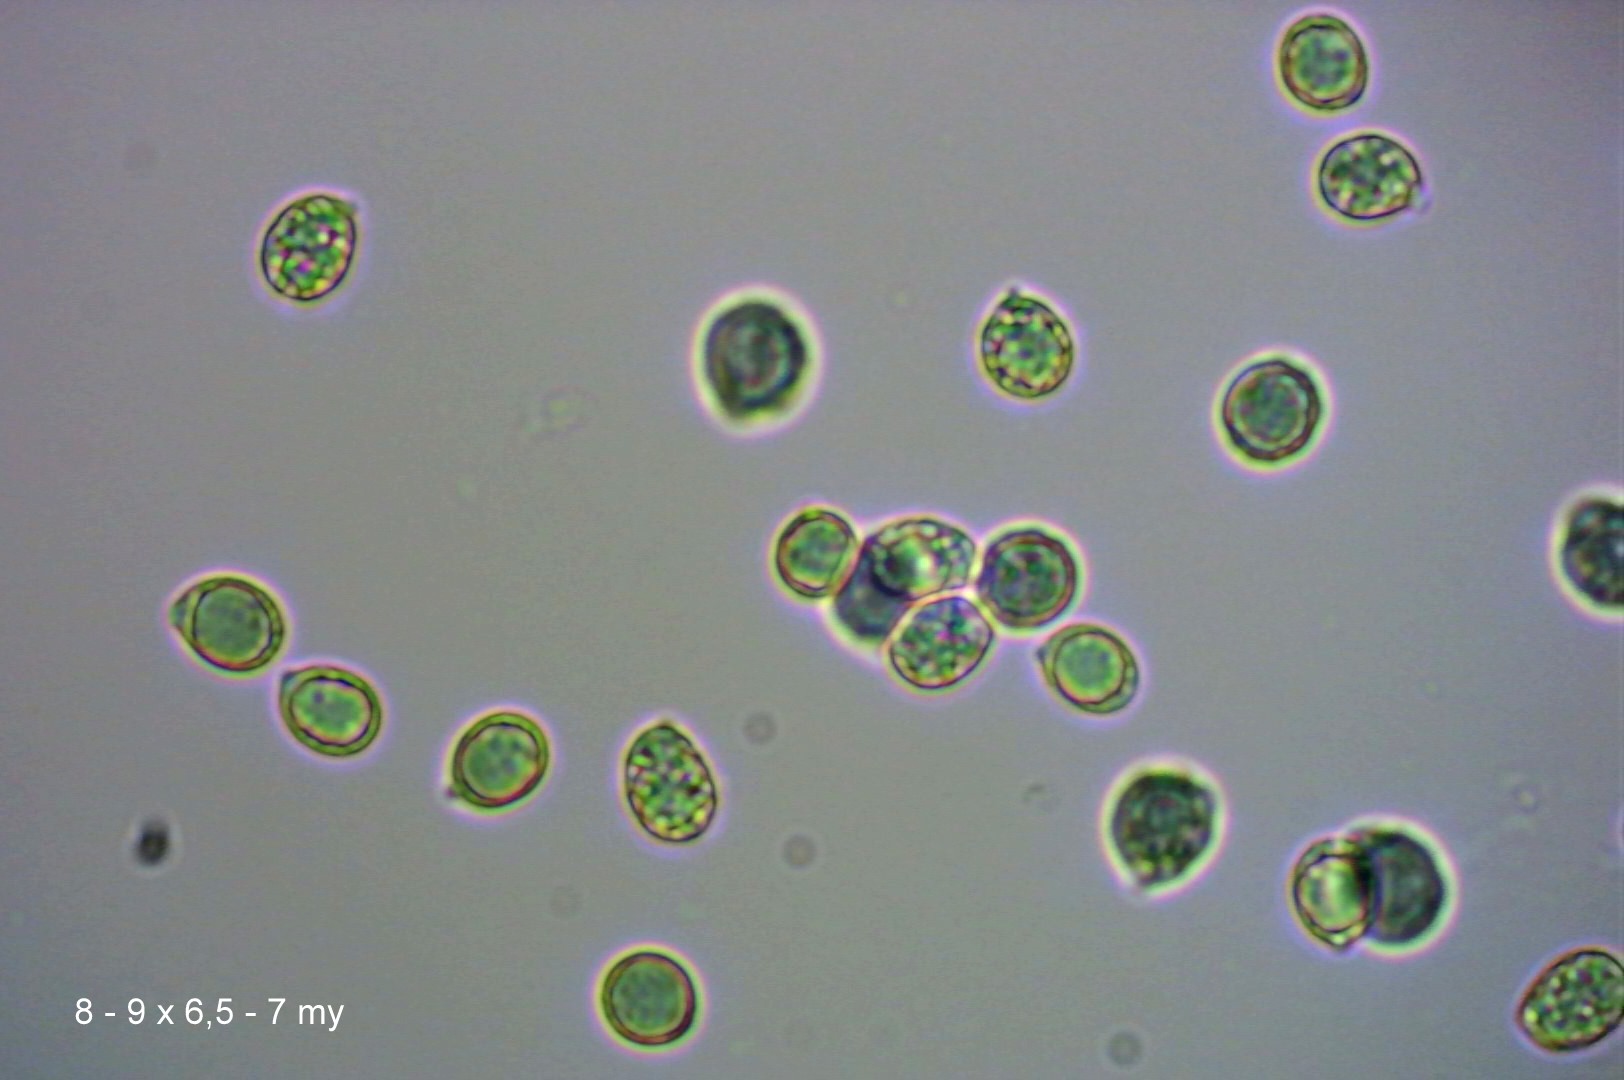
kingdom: Fungi
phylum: Basidiomycota
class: Agaricomycetes
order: Agaricales
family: Amanitaceae
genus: Amanita
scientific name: Amanita phalloides
